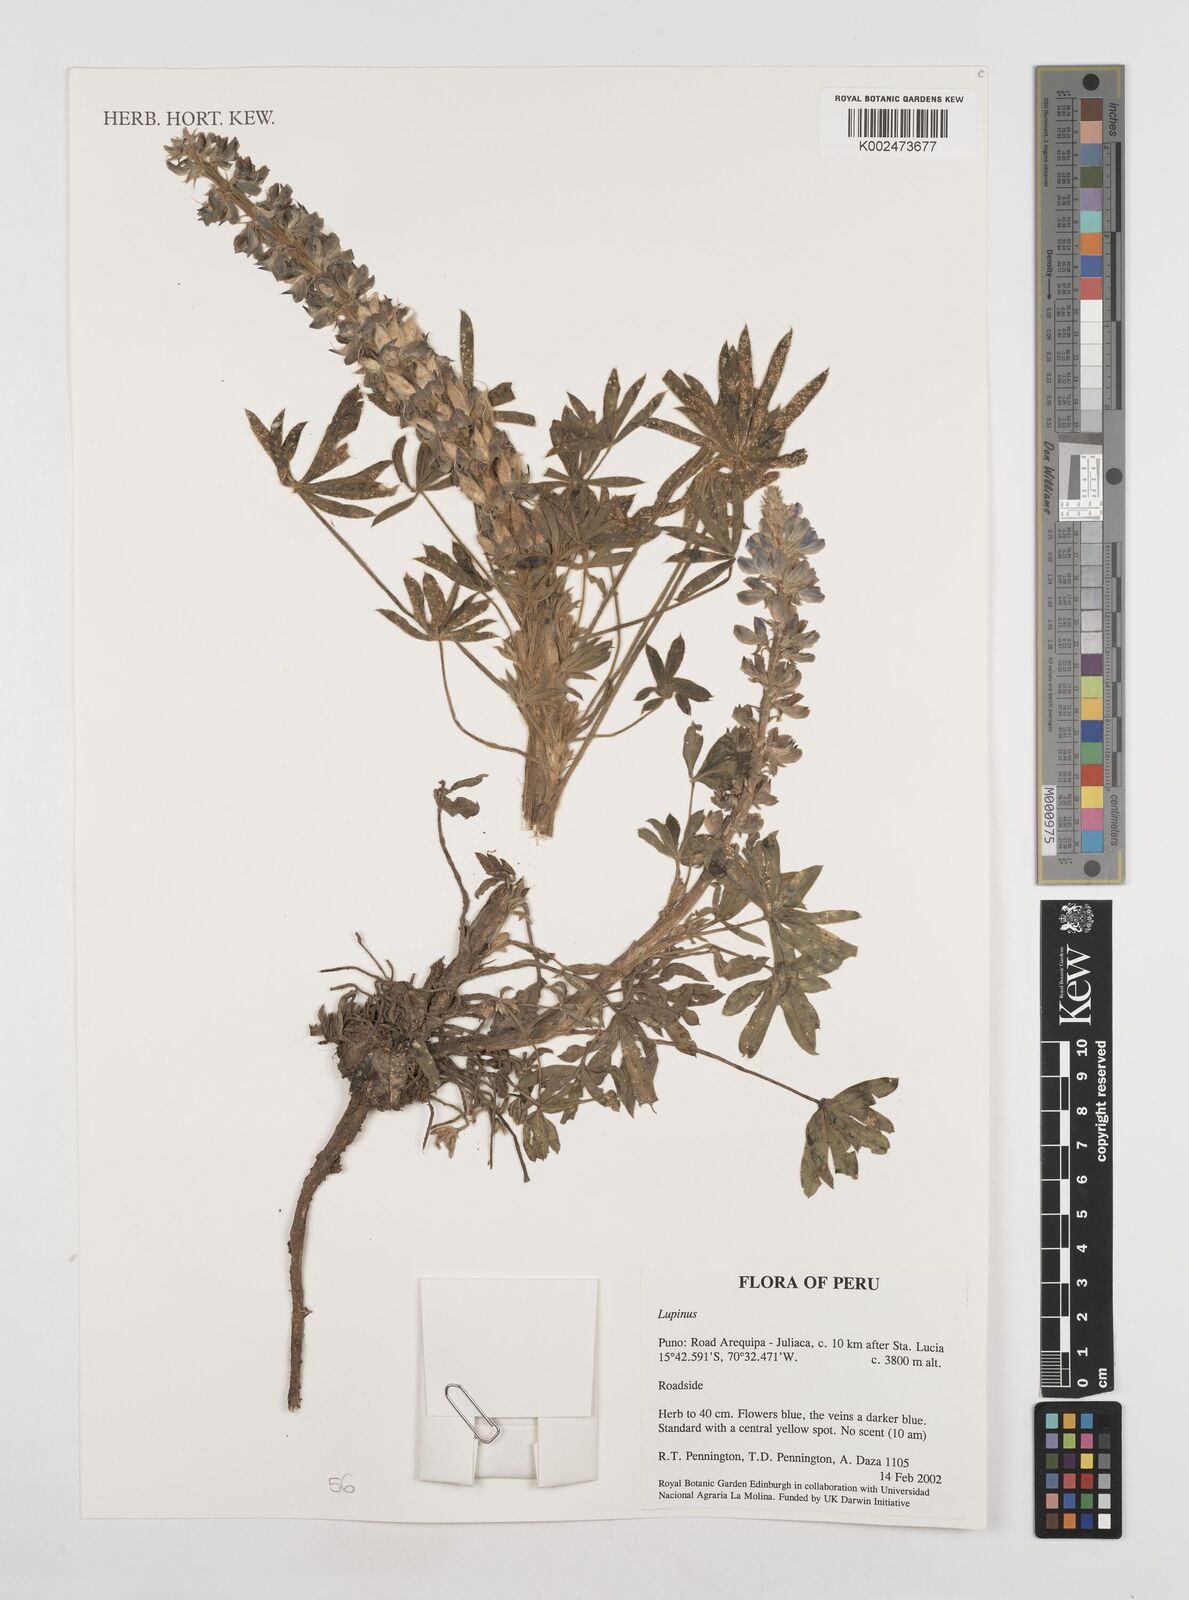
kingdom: Plantae
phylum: Tracheophyta
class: Magnoliopsida
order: Fabales
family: Fabaceae
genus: Lupinus
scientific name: Lupinus
